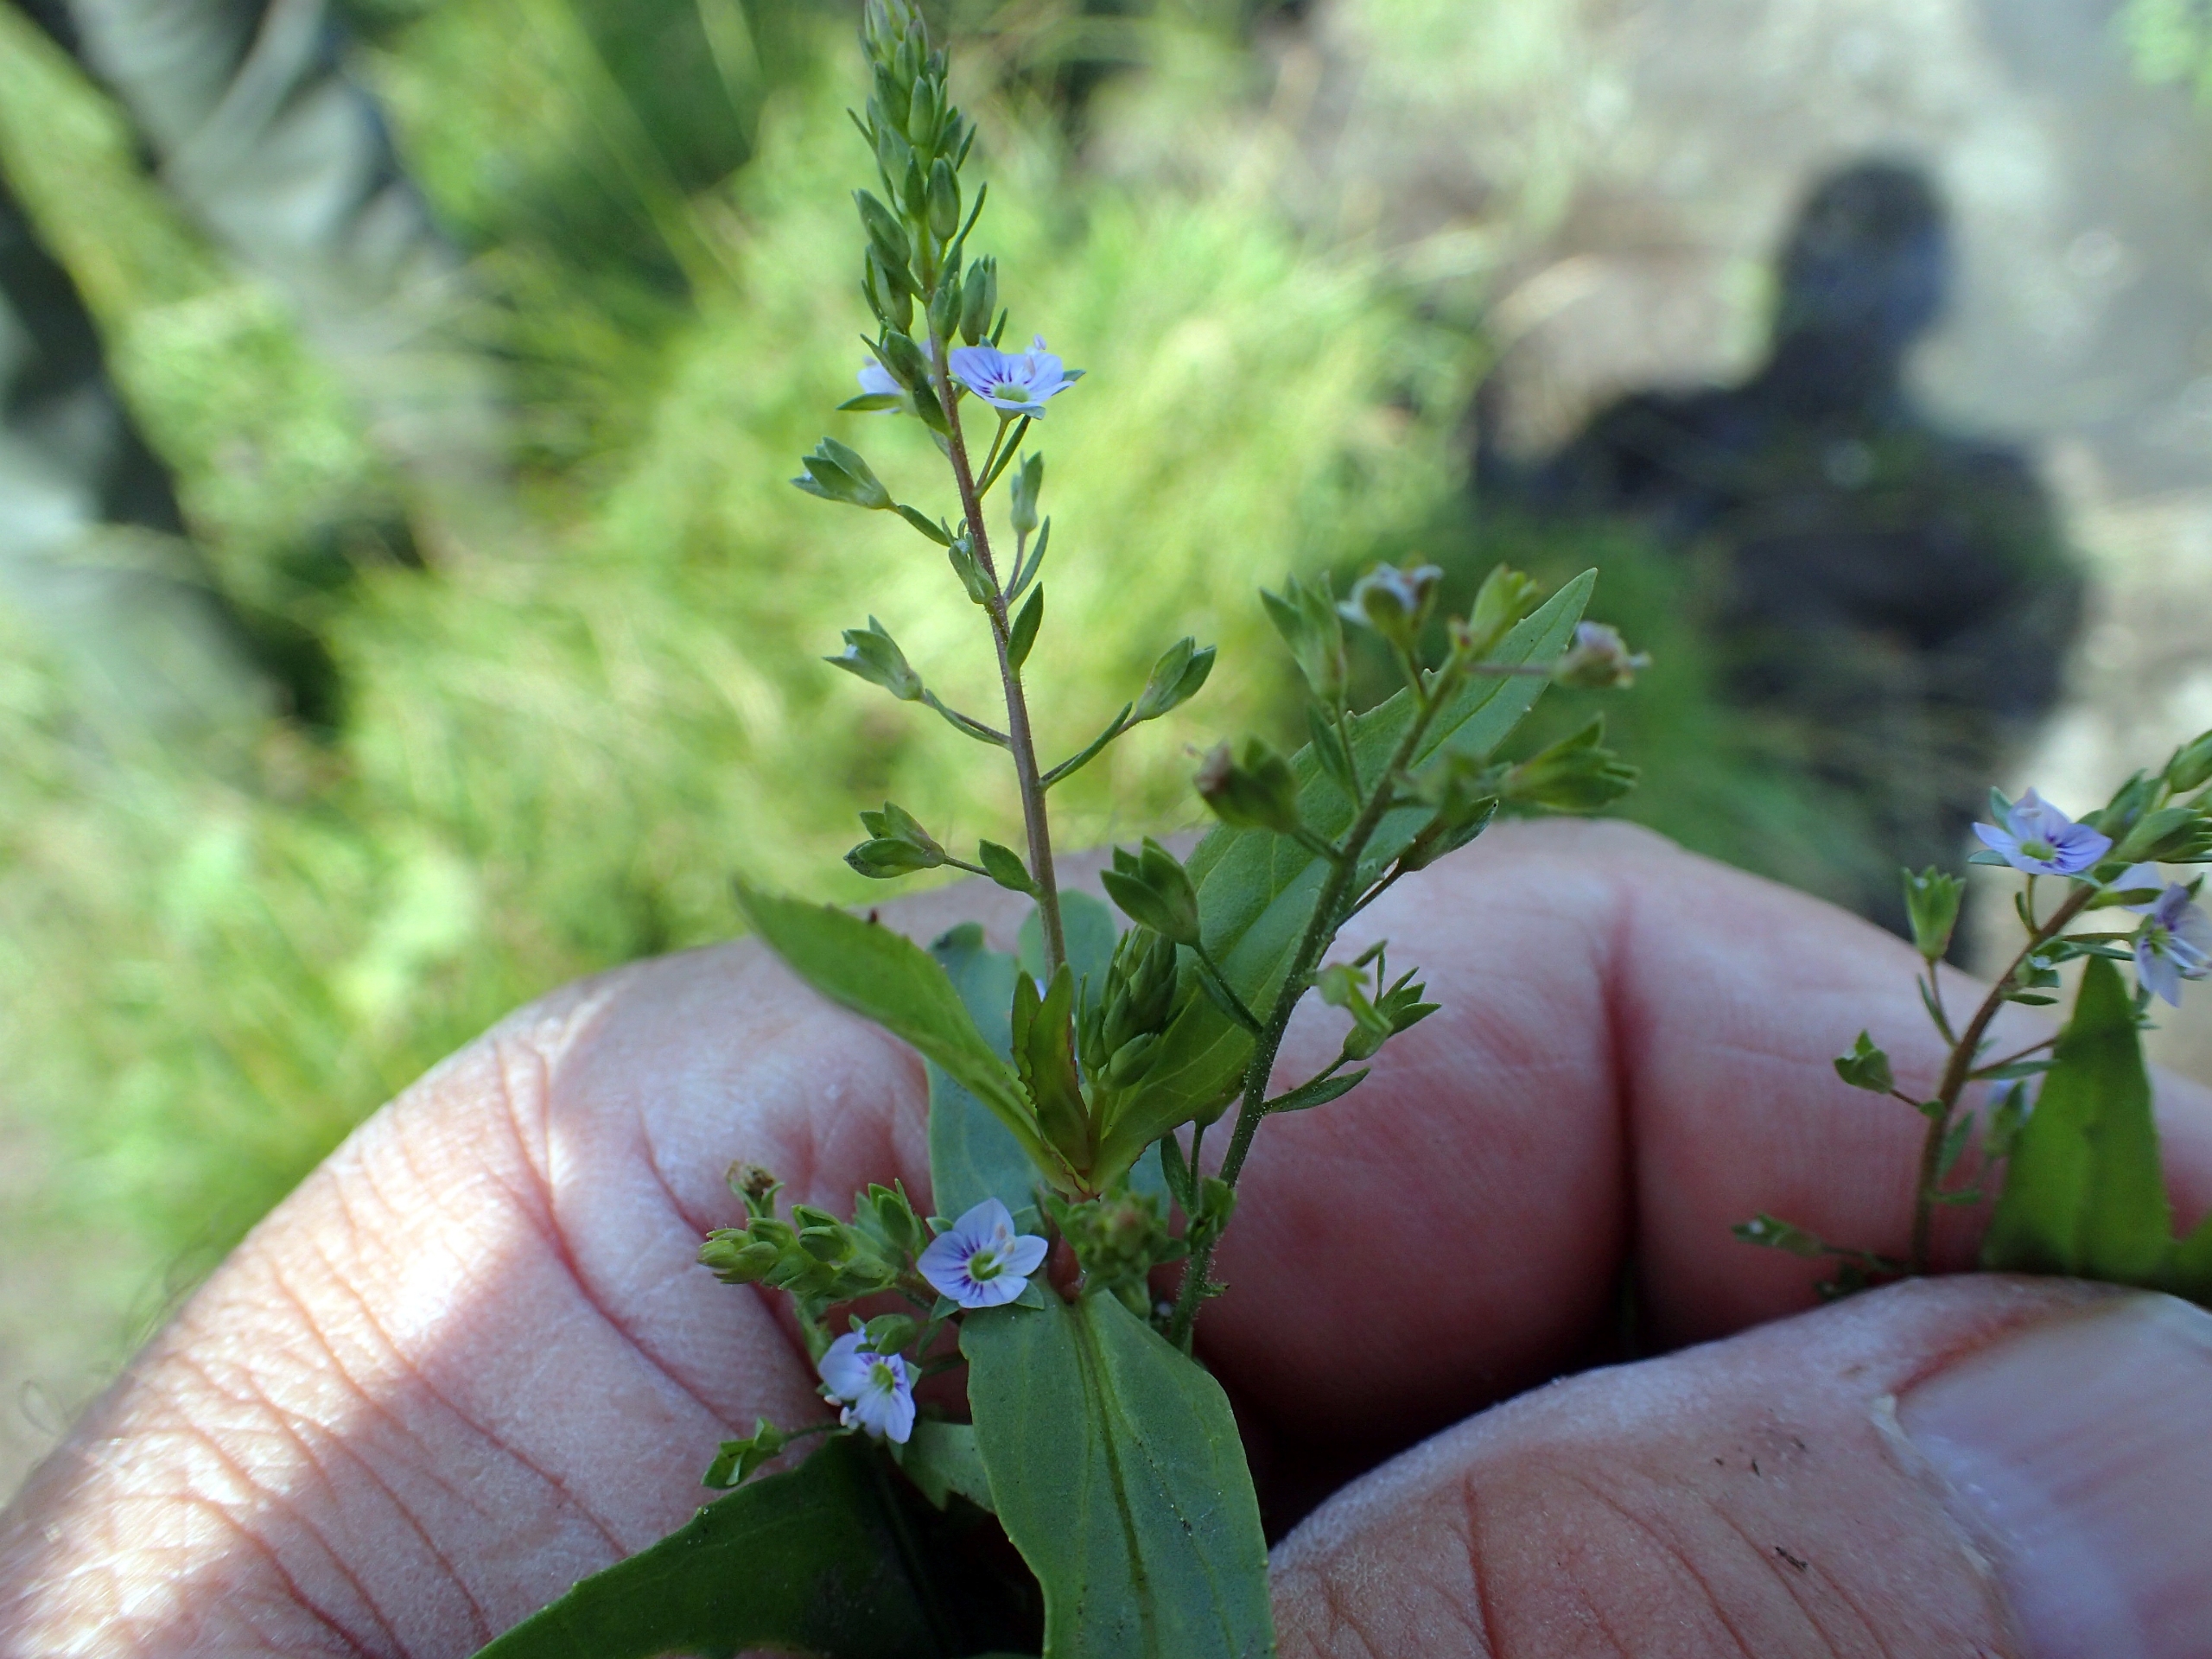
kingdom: Plantae
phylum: Tracheophyta
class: Magnoliopsida
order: Lamiales
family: Plantaginaceae
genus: Veronica
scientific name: Veronica anagallis-aquatica
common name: Lancetbladet ærenpris
